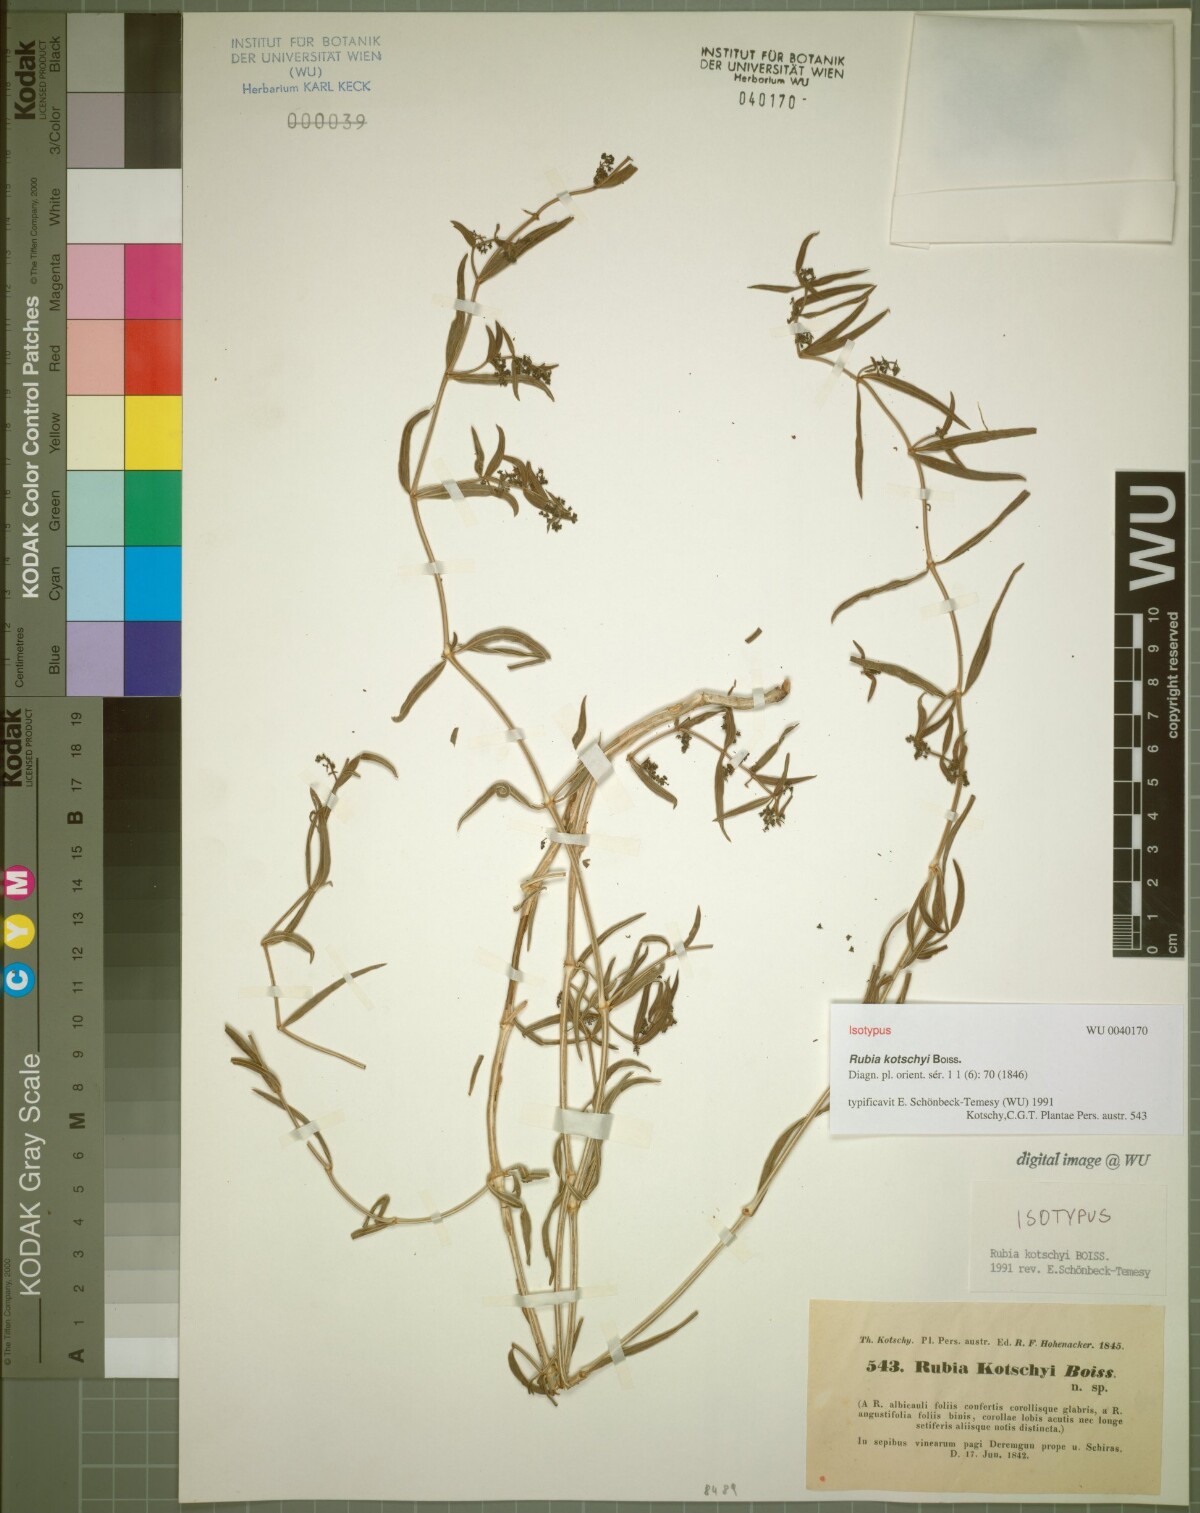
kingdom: Plantae
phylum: Tracheophyta
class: Magnoliopsida
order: Gentianales
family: Rubiaceae
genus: Rubia
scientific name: Rubia albicaulis
